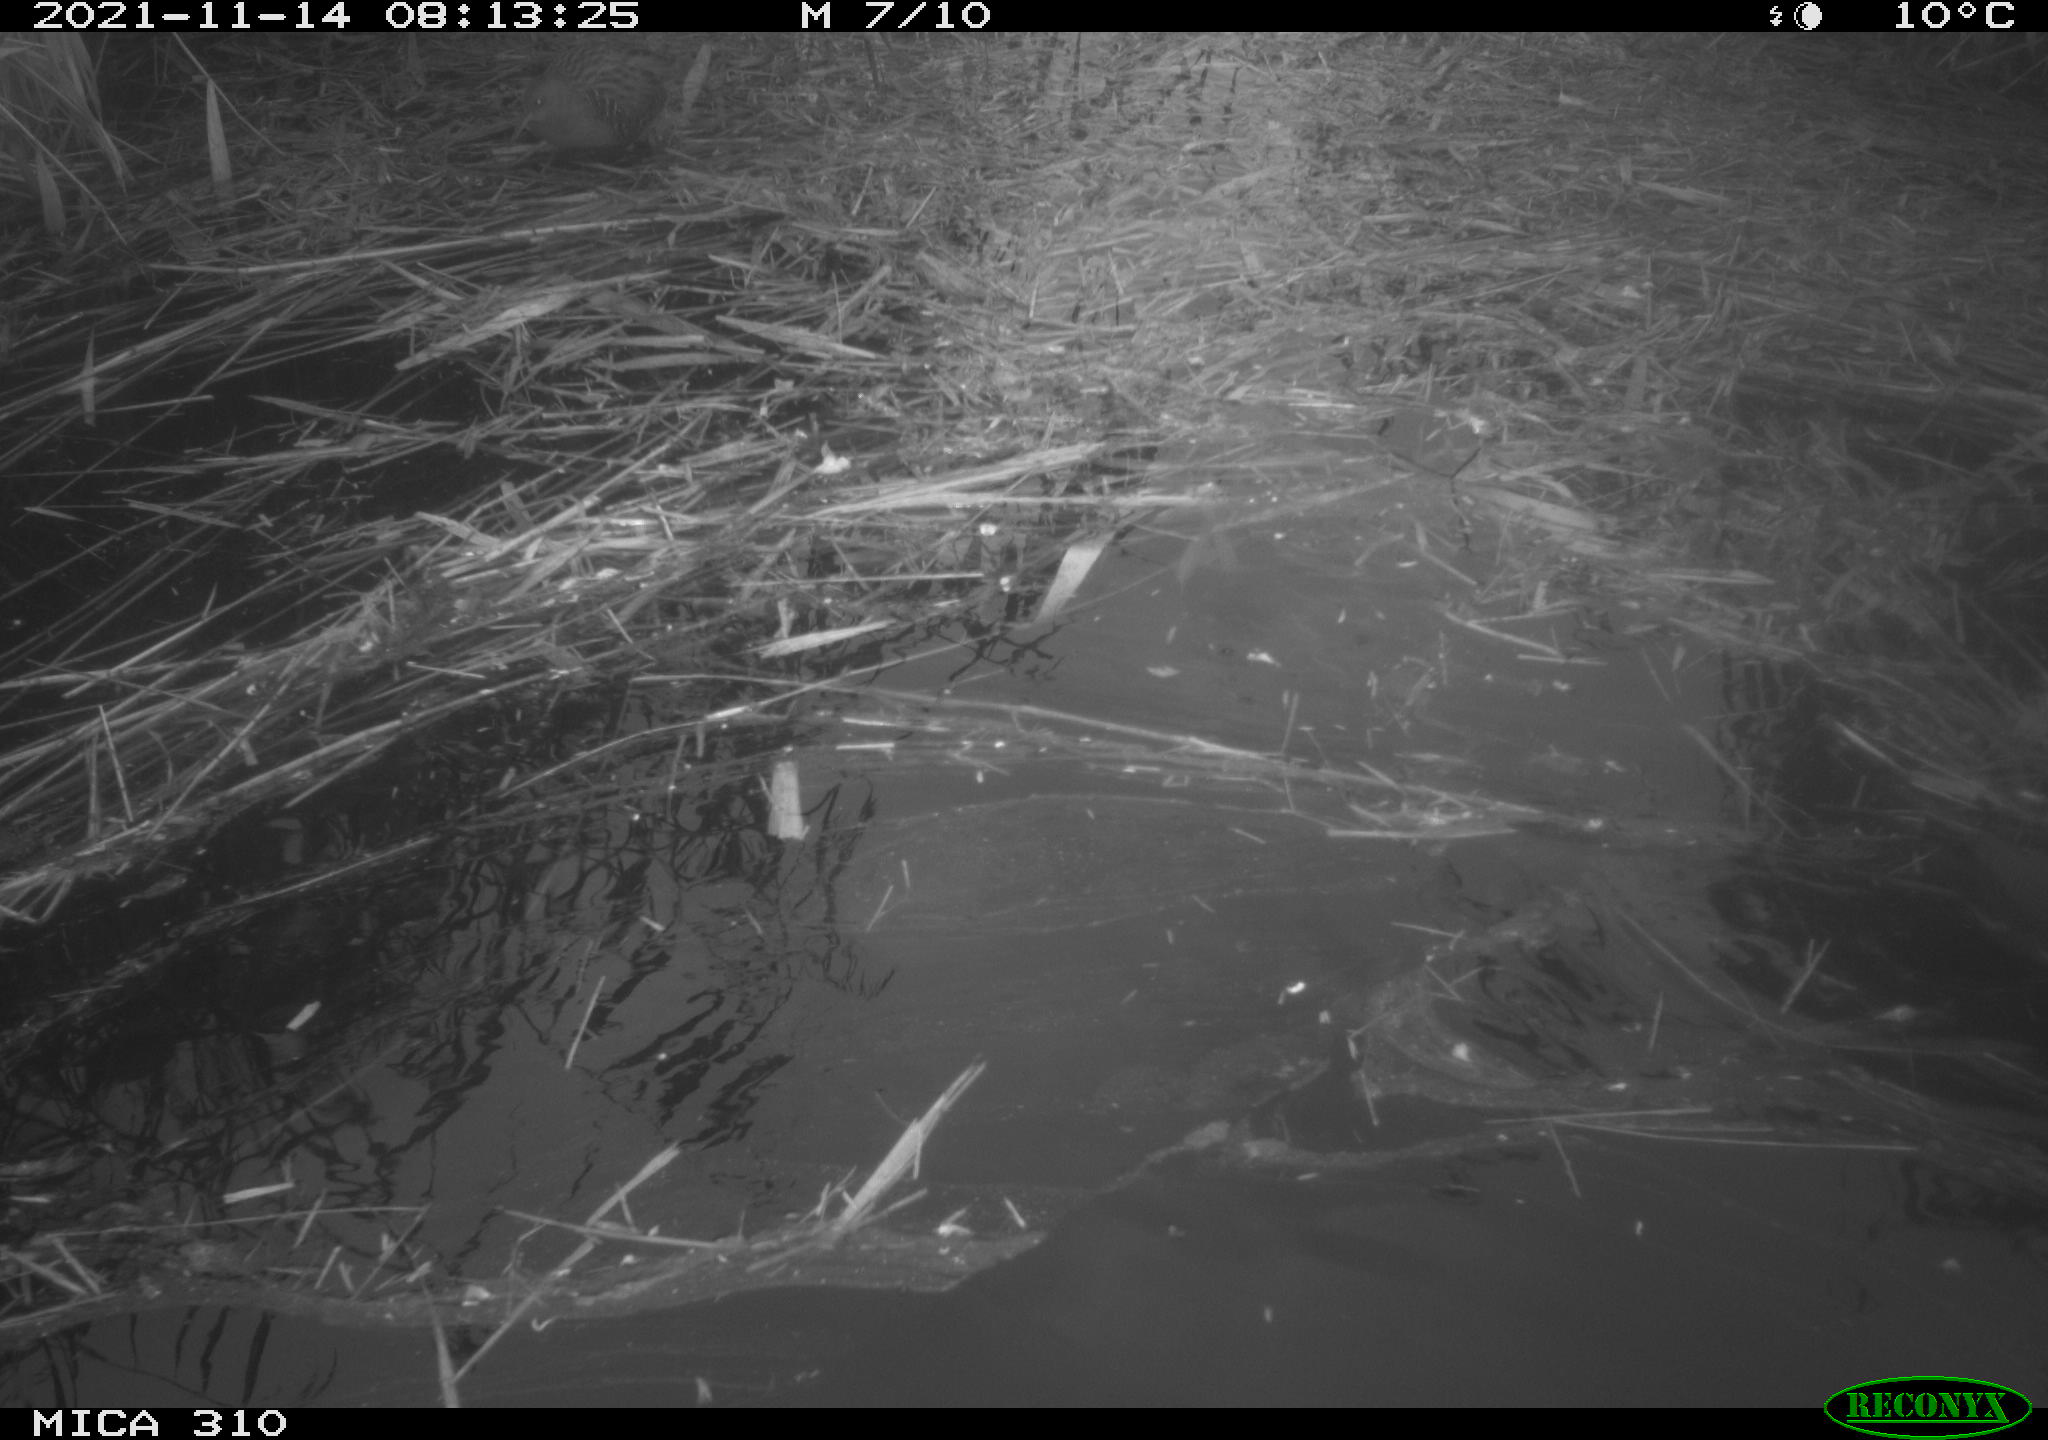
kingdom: Animalia
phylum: Chordata
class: Aves
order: Gruiformes
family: Rallidae
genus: Gallinula
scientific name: Gallinula chloropus
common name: Common moorhen
